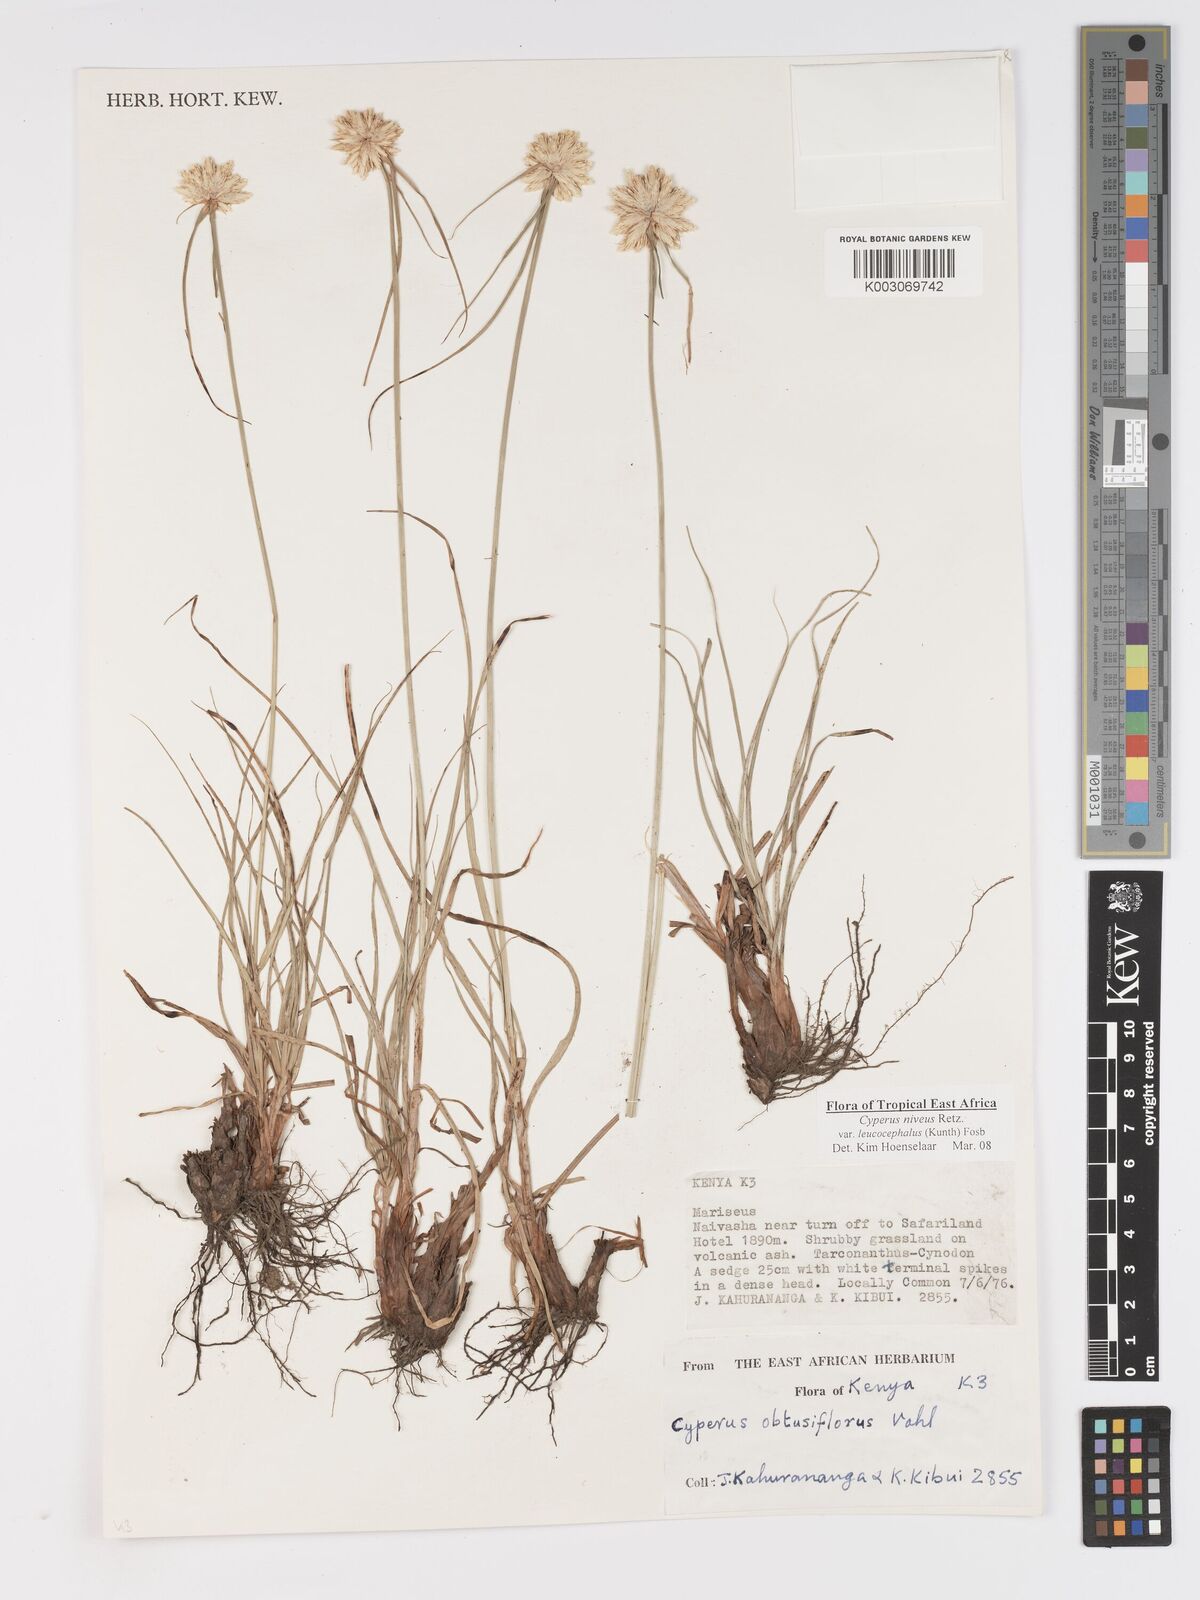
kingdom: Plantae
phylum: Tracheophyta
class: Liliopsida
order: Poales
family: Cyperaceae
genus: Cyperus
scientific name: Cyperus niveus
